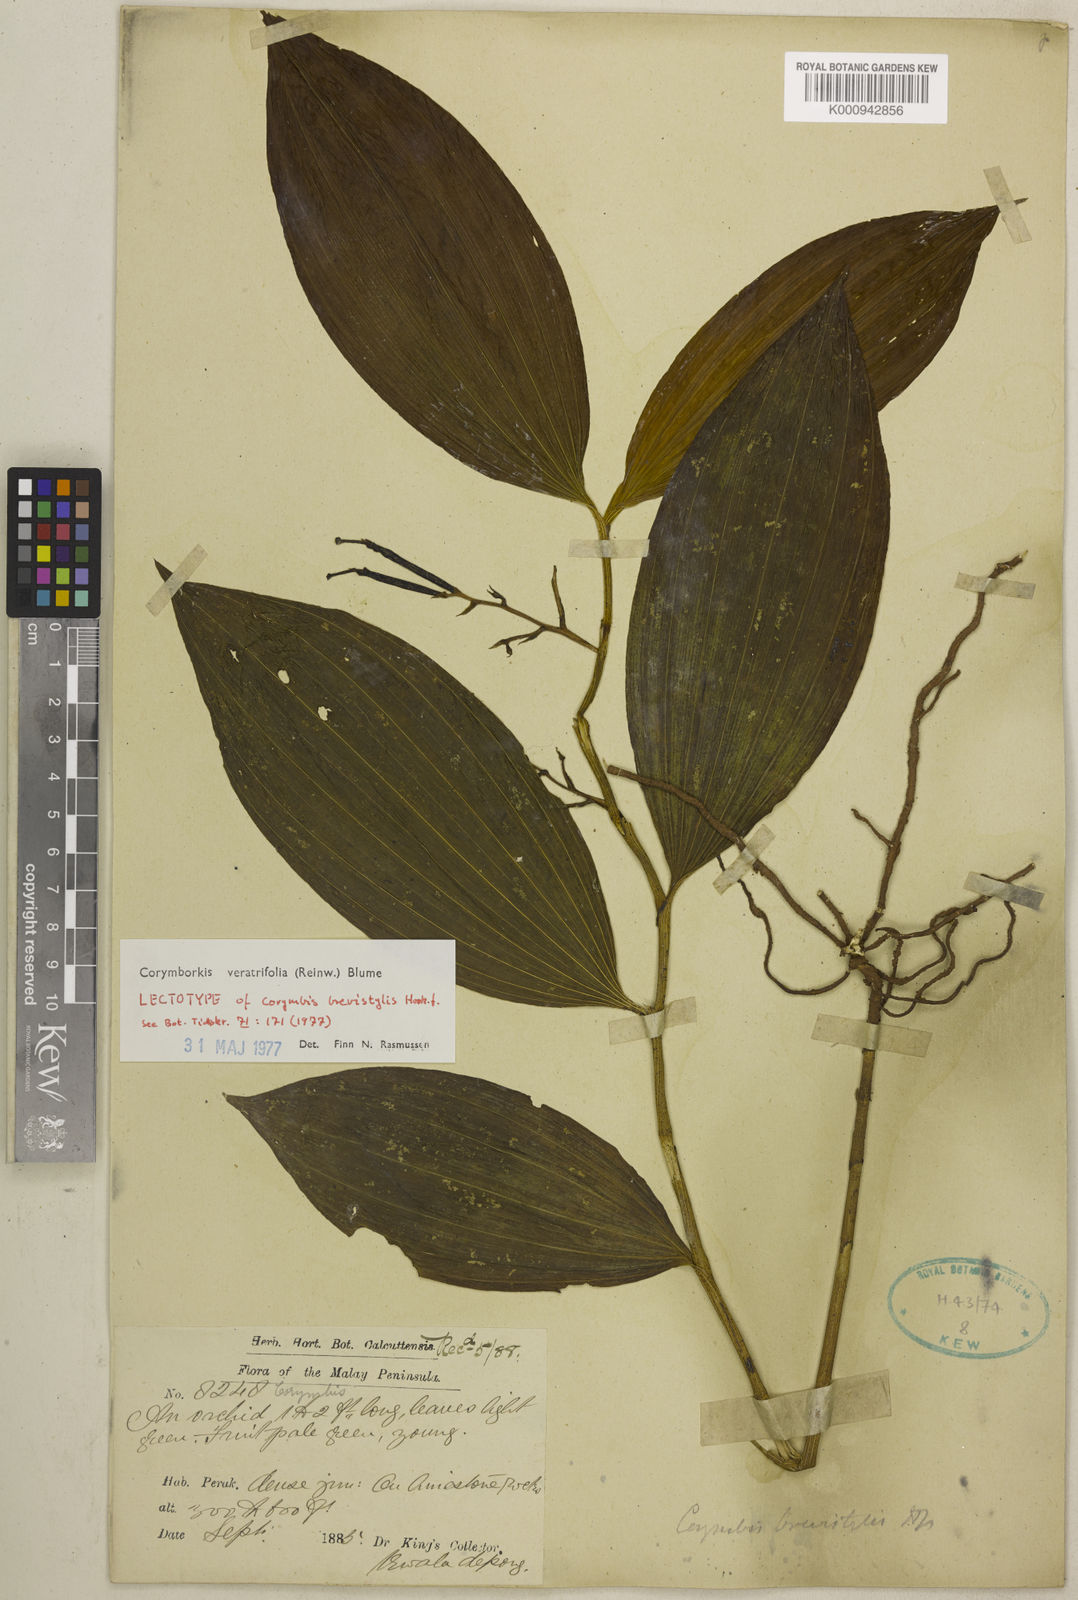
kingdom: Plantae
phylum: Tracheophyta
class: Liliopsida
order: Asparagales
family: Orchidaceae
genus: Corymborkis
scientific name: Corymborkis veratrifolia
